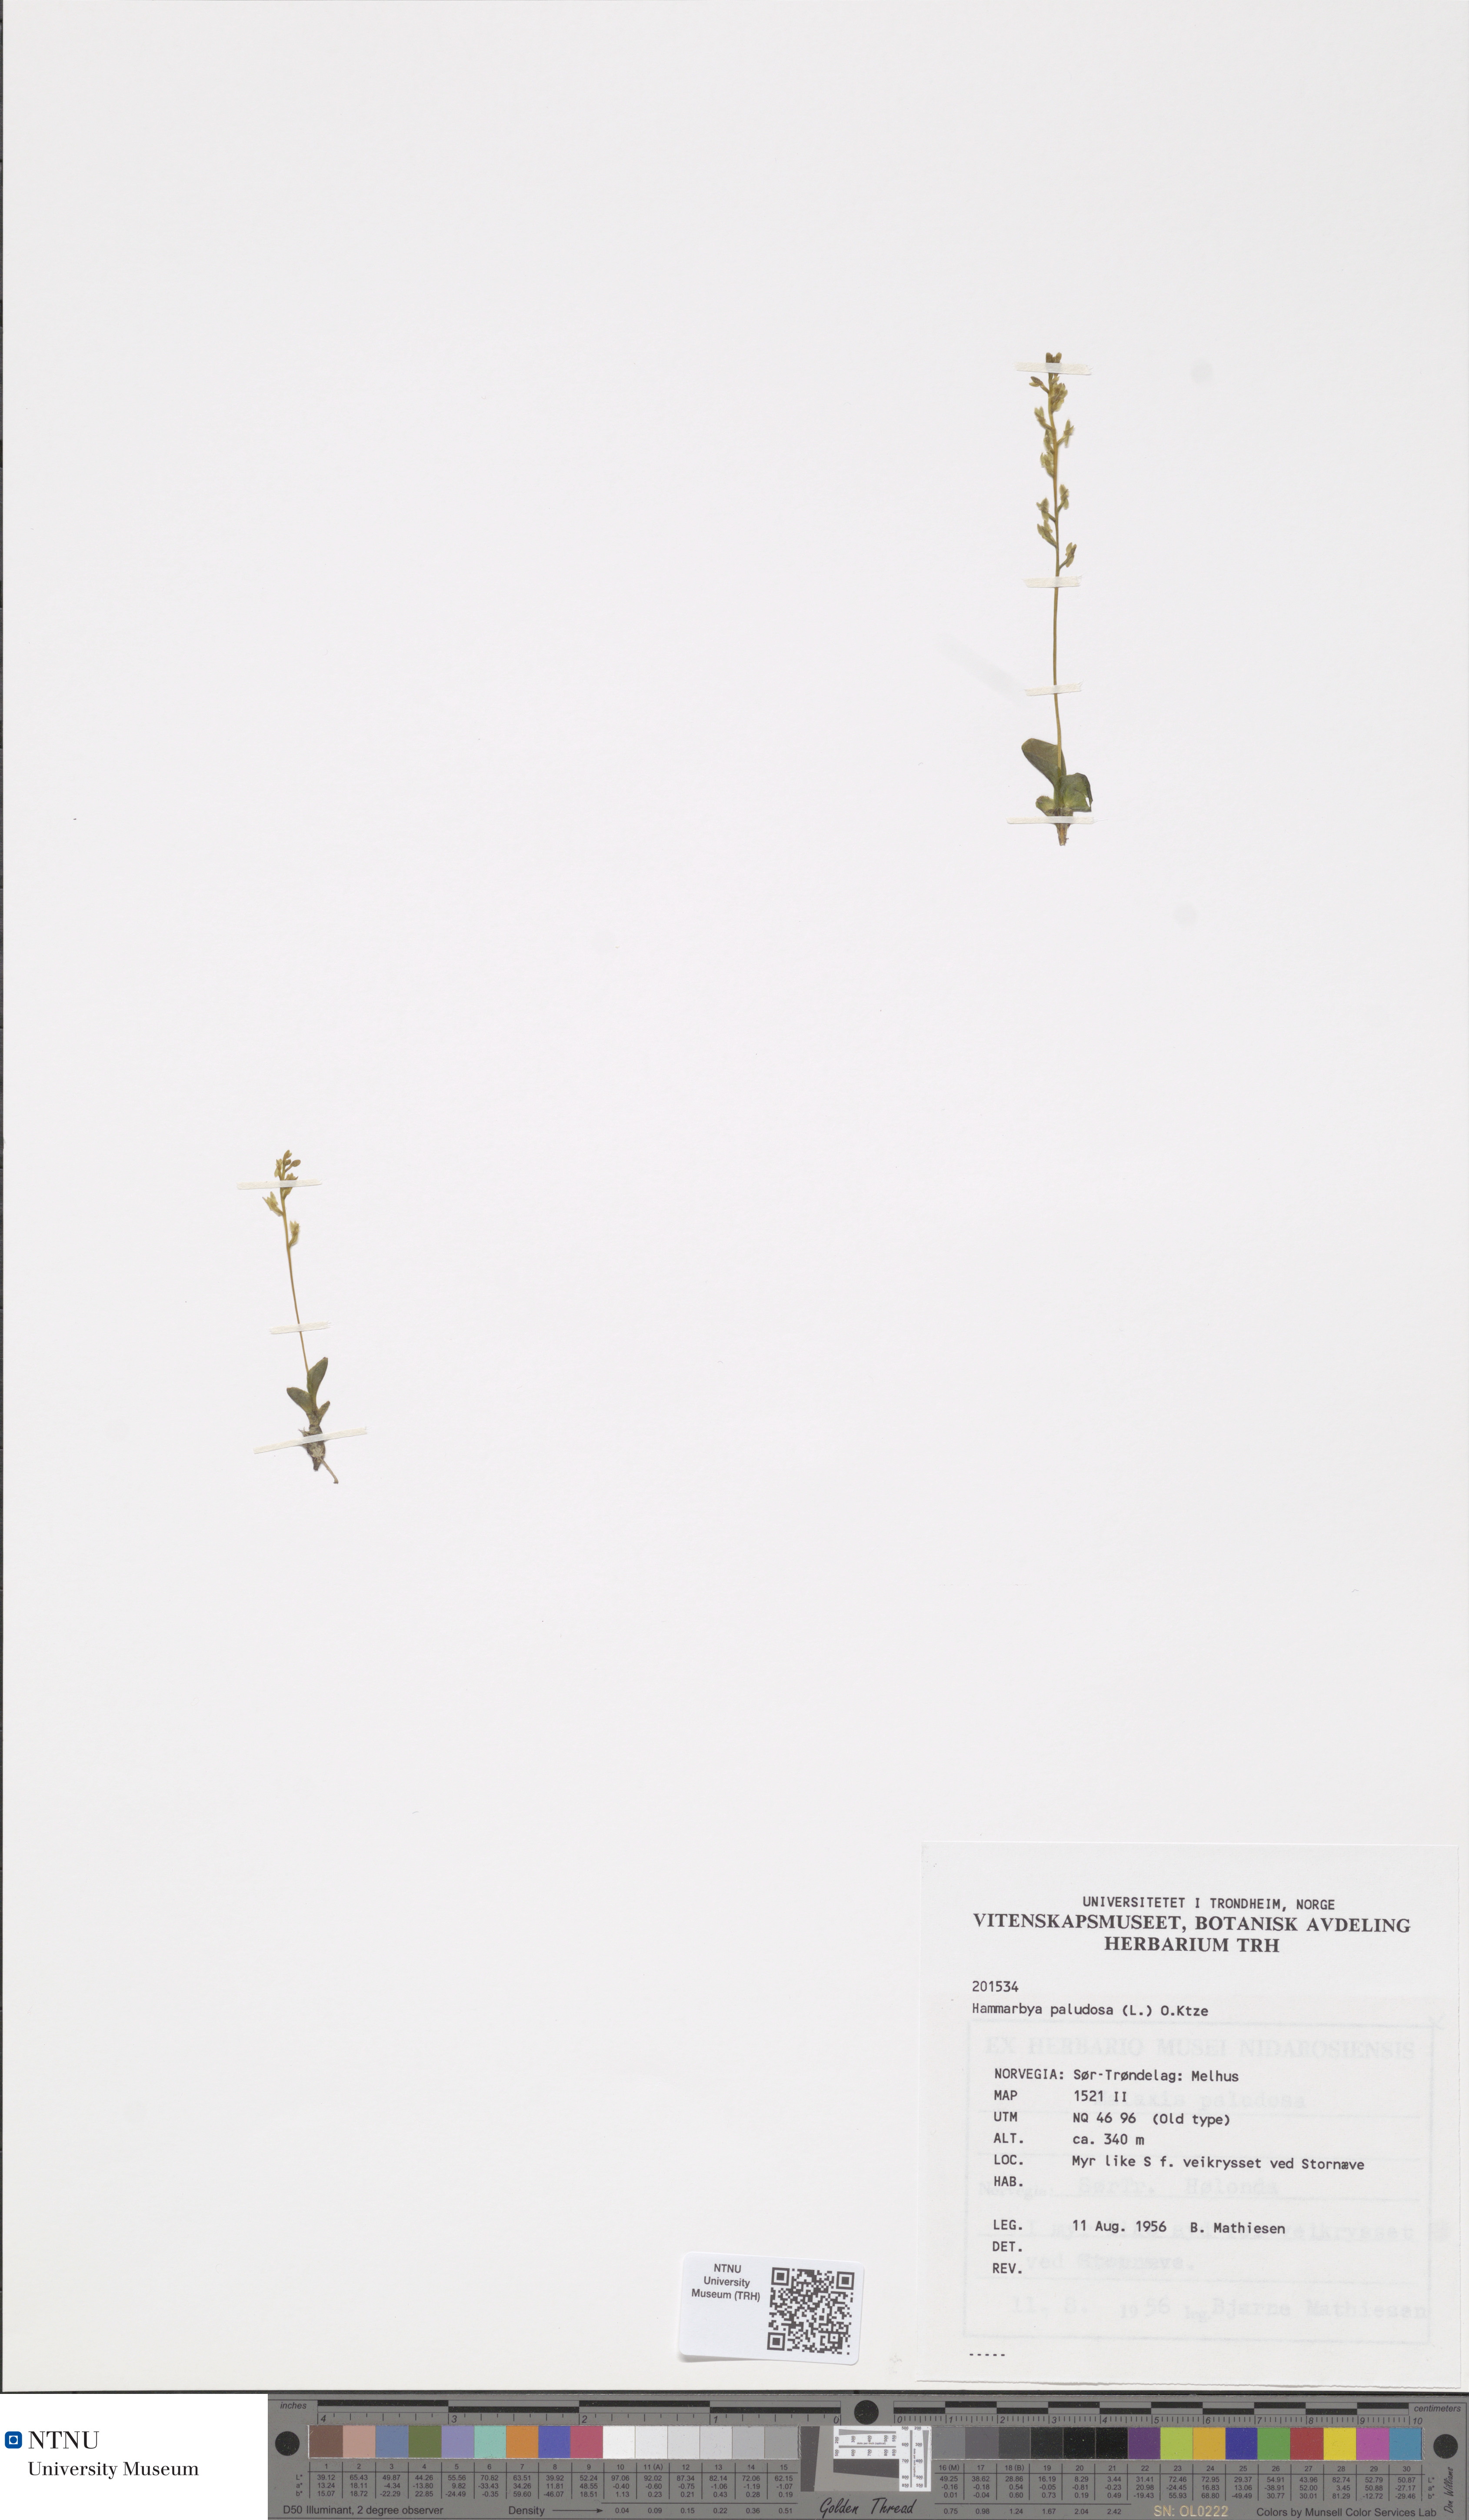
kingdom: Plantae
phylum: Tracheophyta
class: Liliopsida
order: Asparagales
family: Orchidaceae
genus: Hammarbya
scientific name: Hammarbya paludosa
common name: Bog orchid
